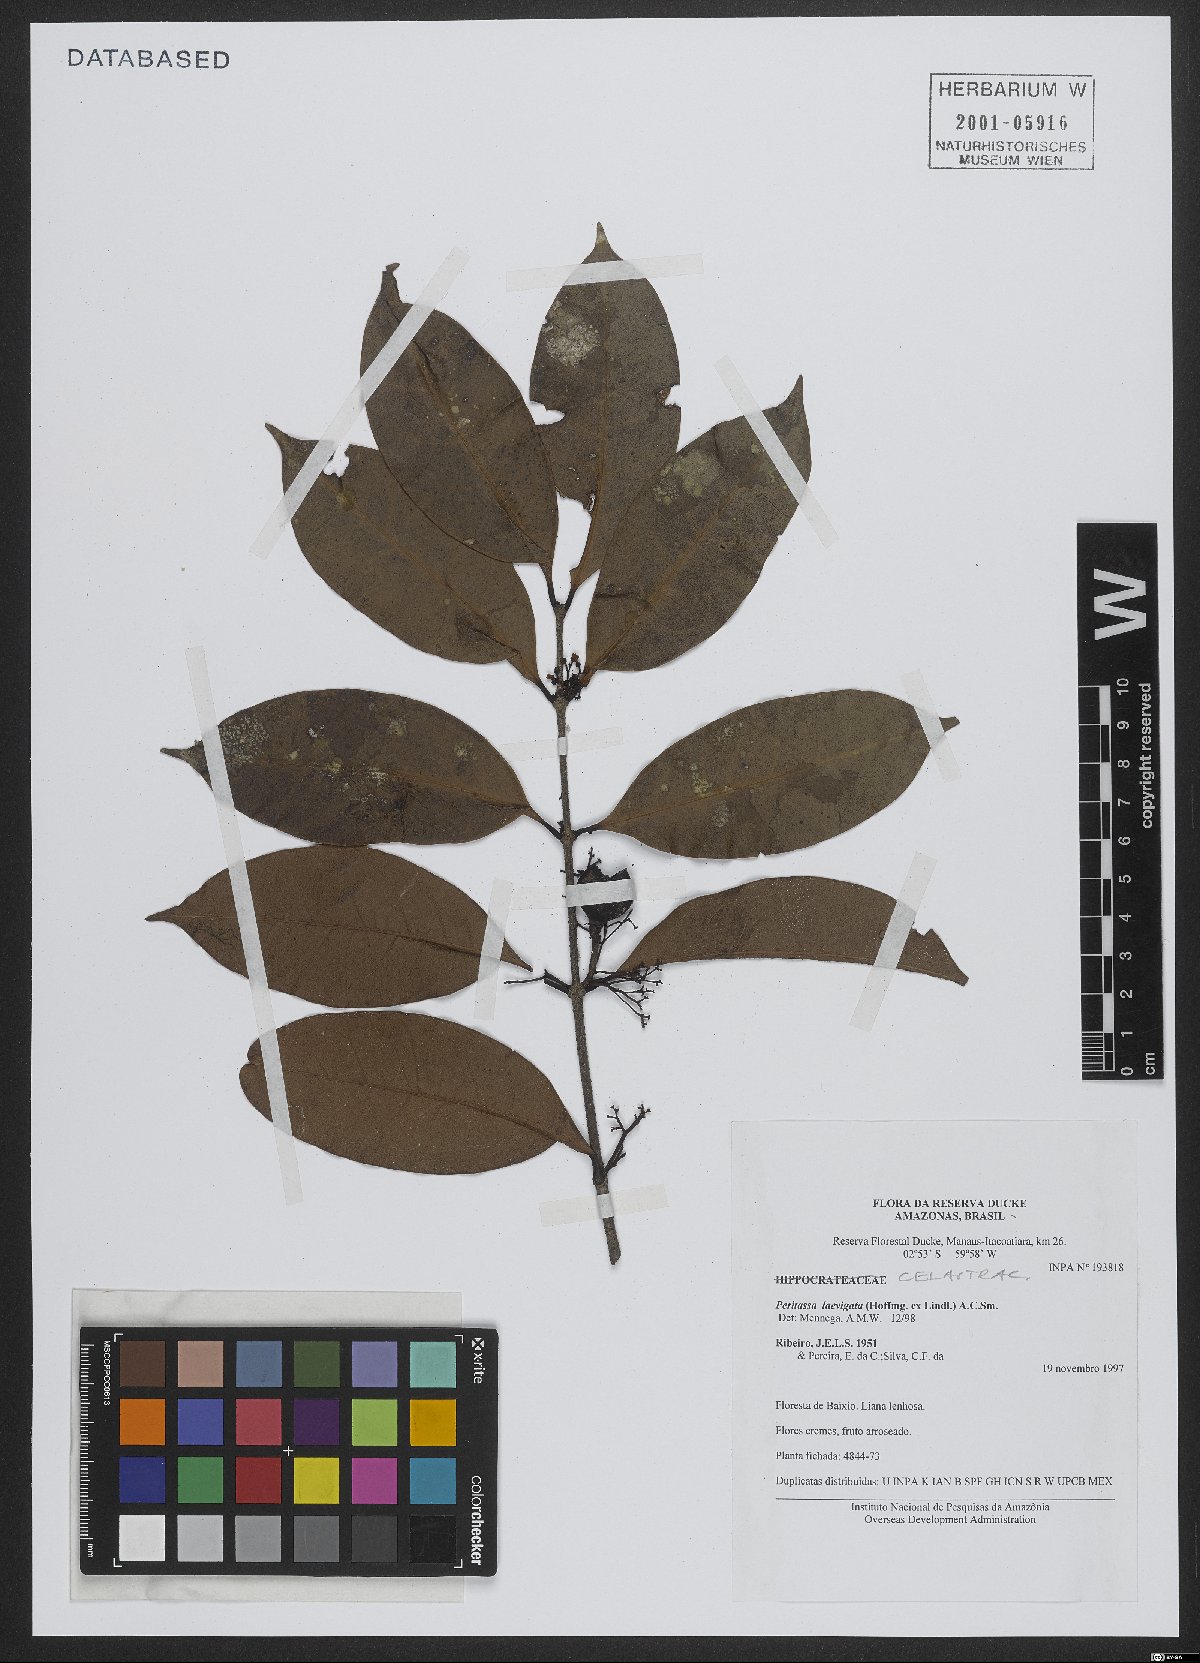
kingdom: Plantae
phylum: Tracheophyta
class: Magnoliopsida
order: Celastrales
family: Celastraceae
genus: Peritassa
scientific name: Peritassa laevigata
